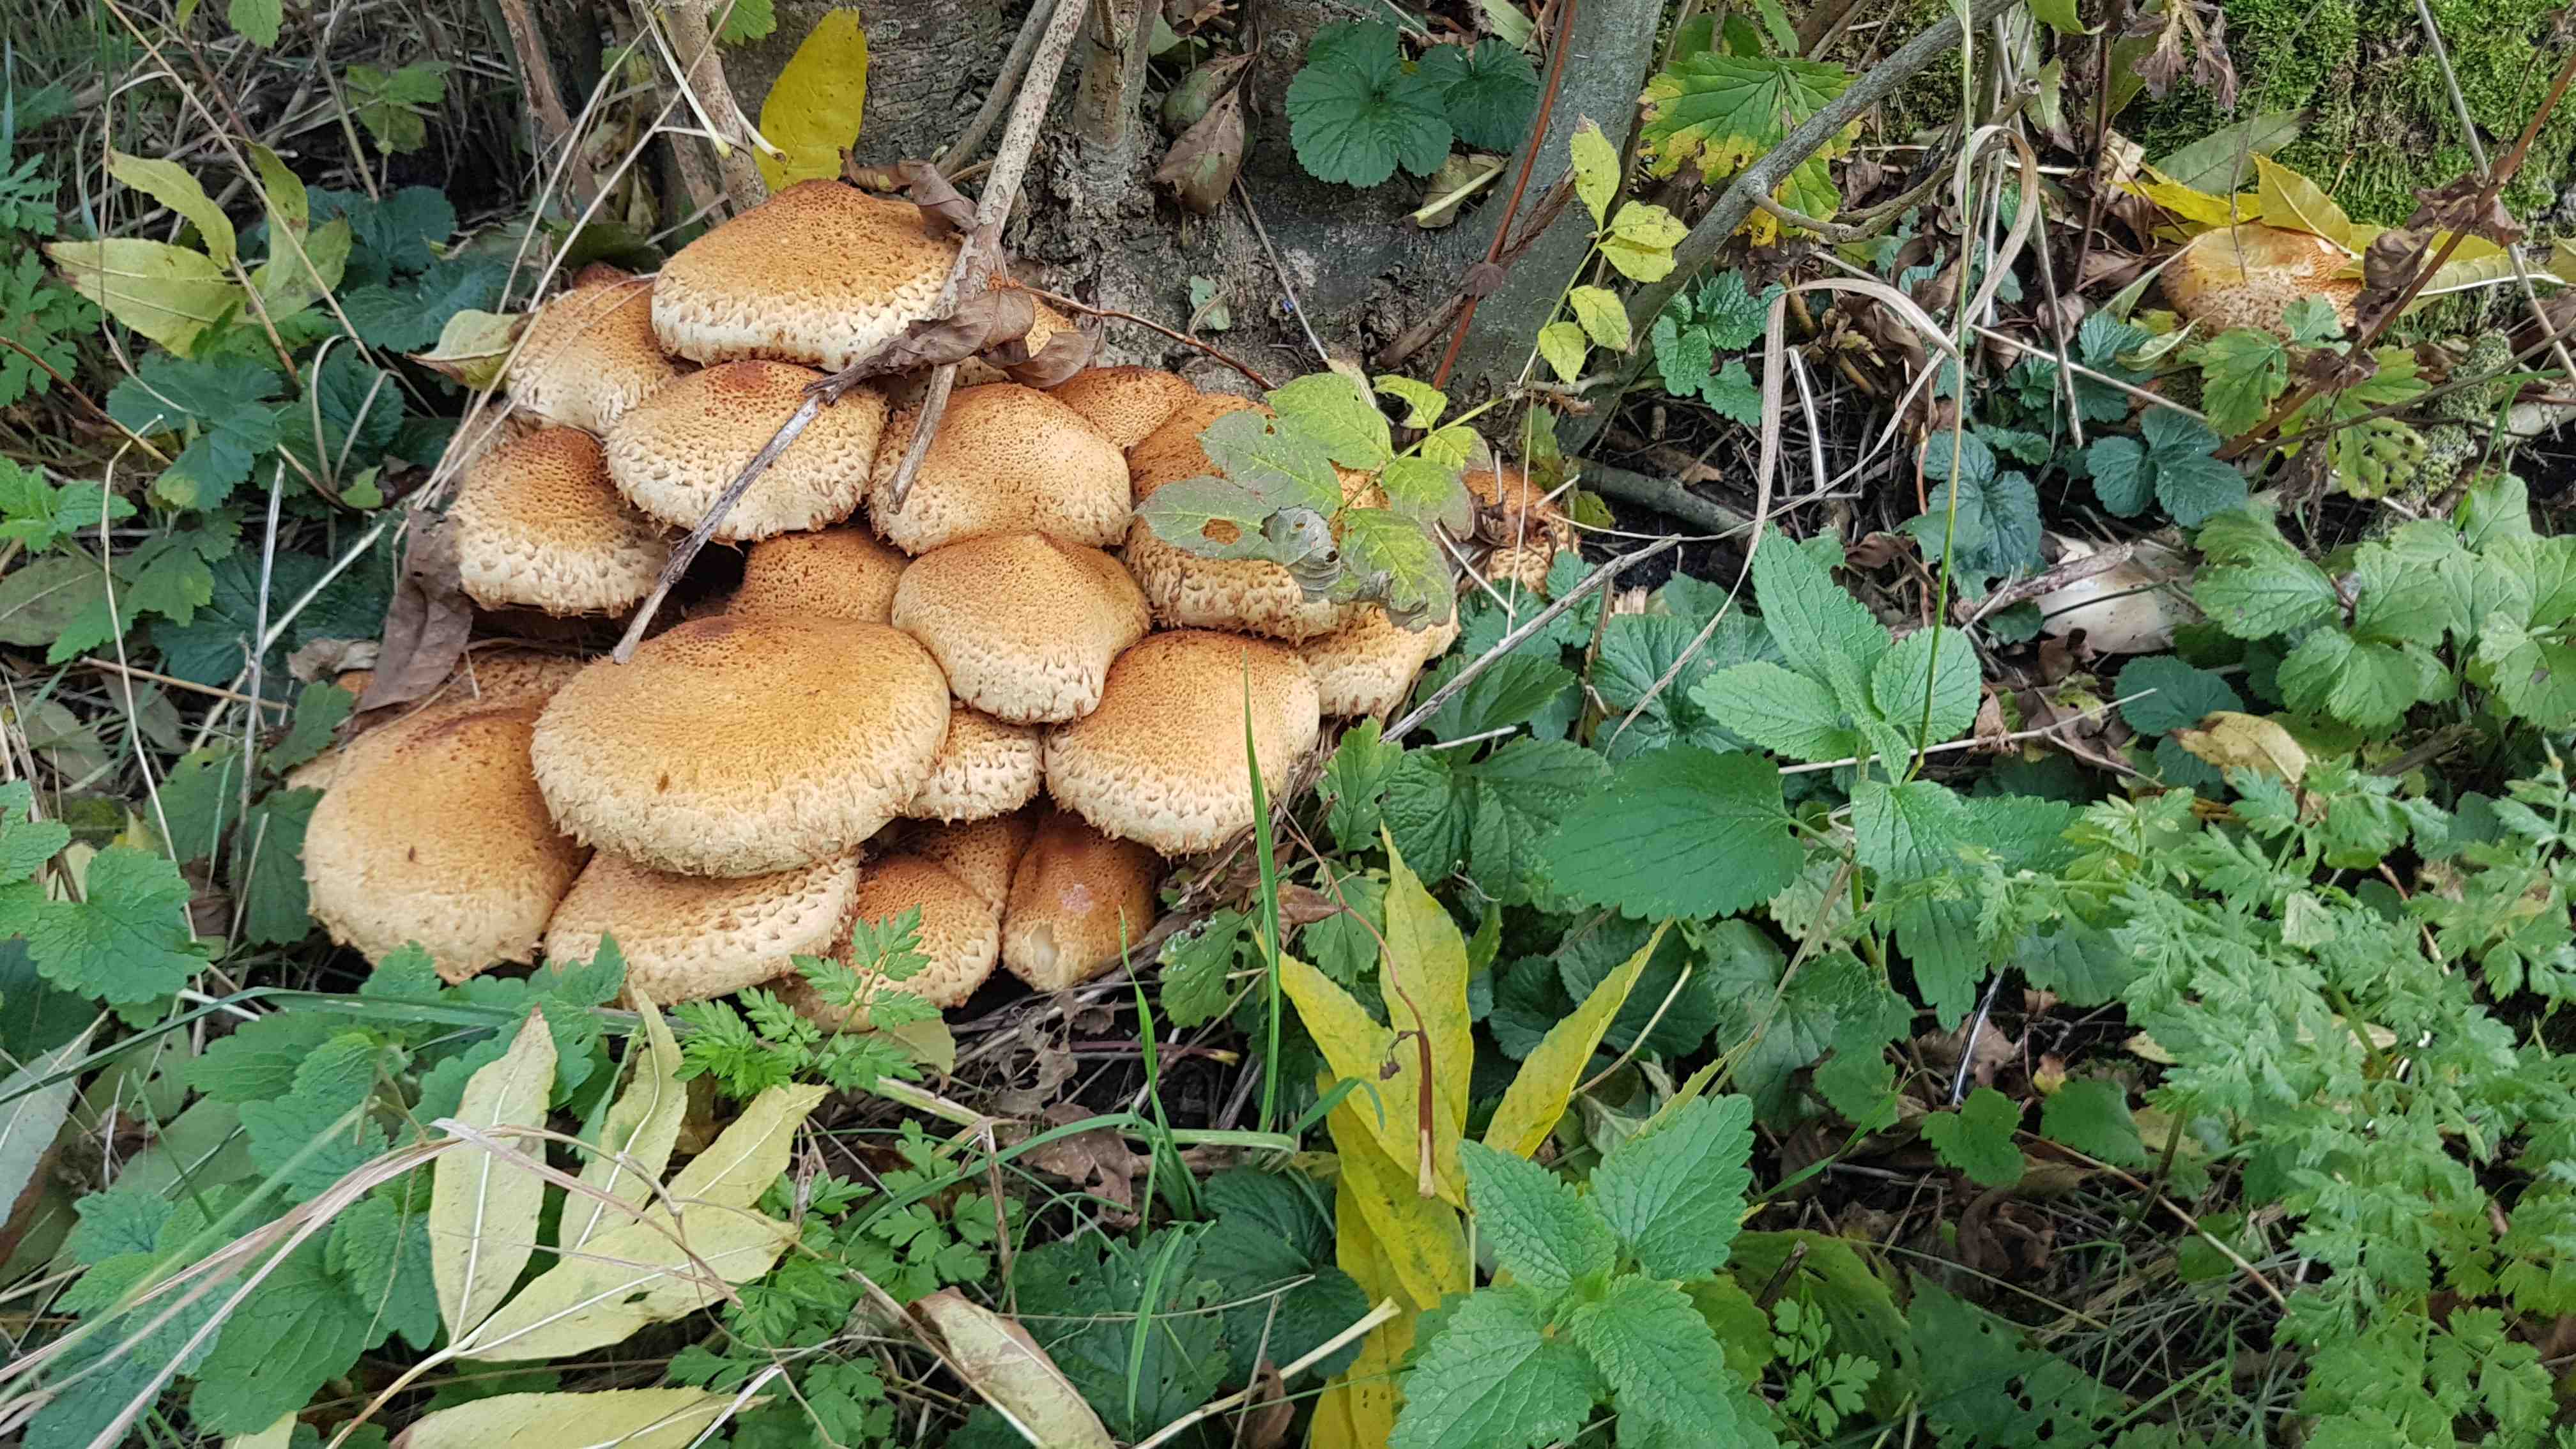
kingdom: Fungi
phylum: Basidiomycota
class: Agaricomycetes
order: Agaricales
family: Strophariaceae
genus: Pholiota
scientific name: Pholiota squarrosa
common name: krumskællet skælhat
